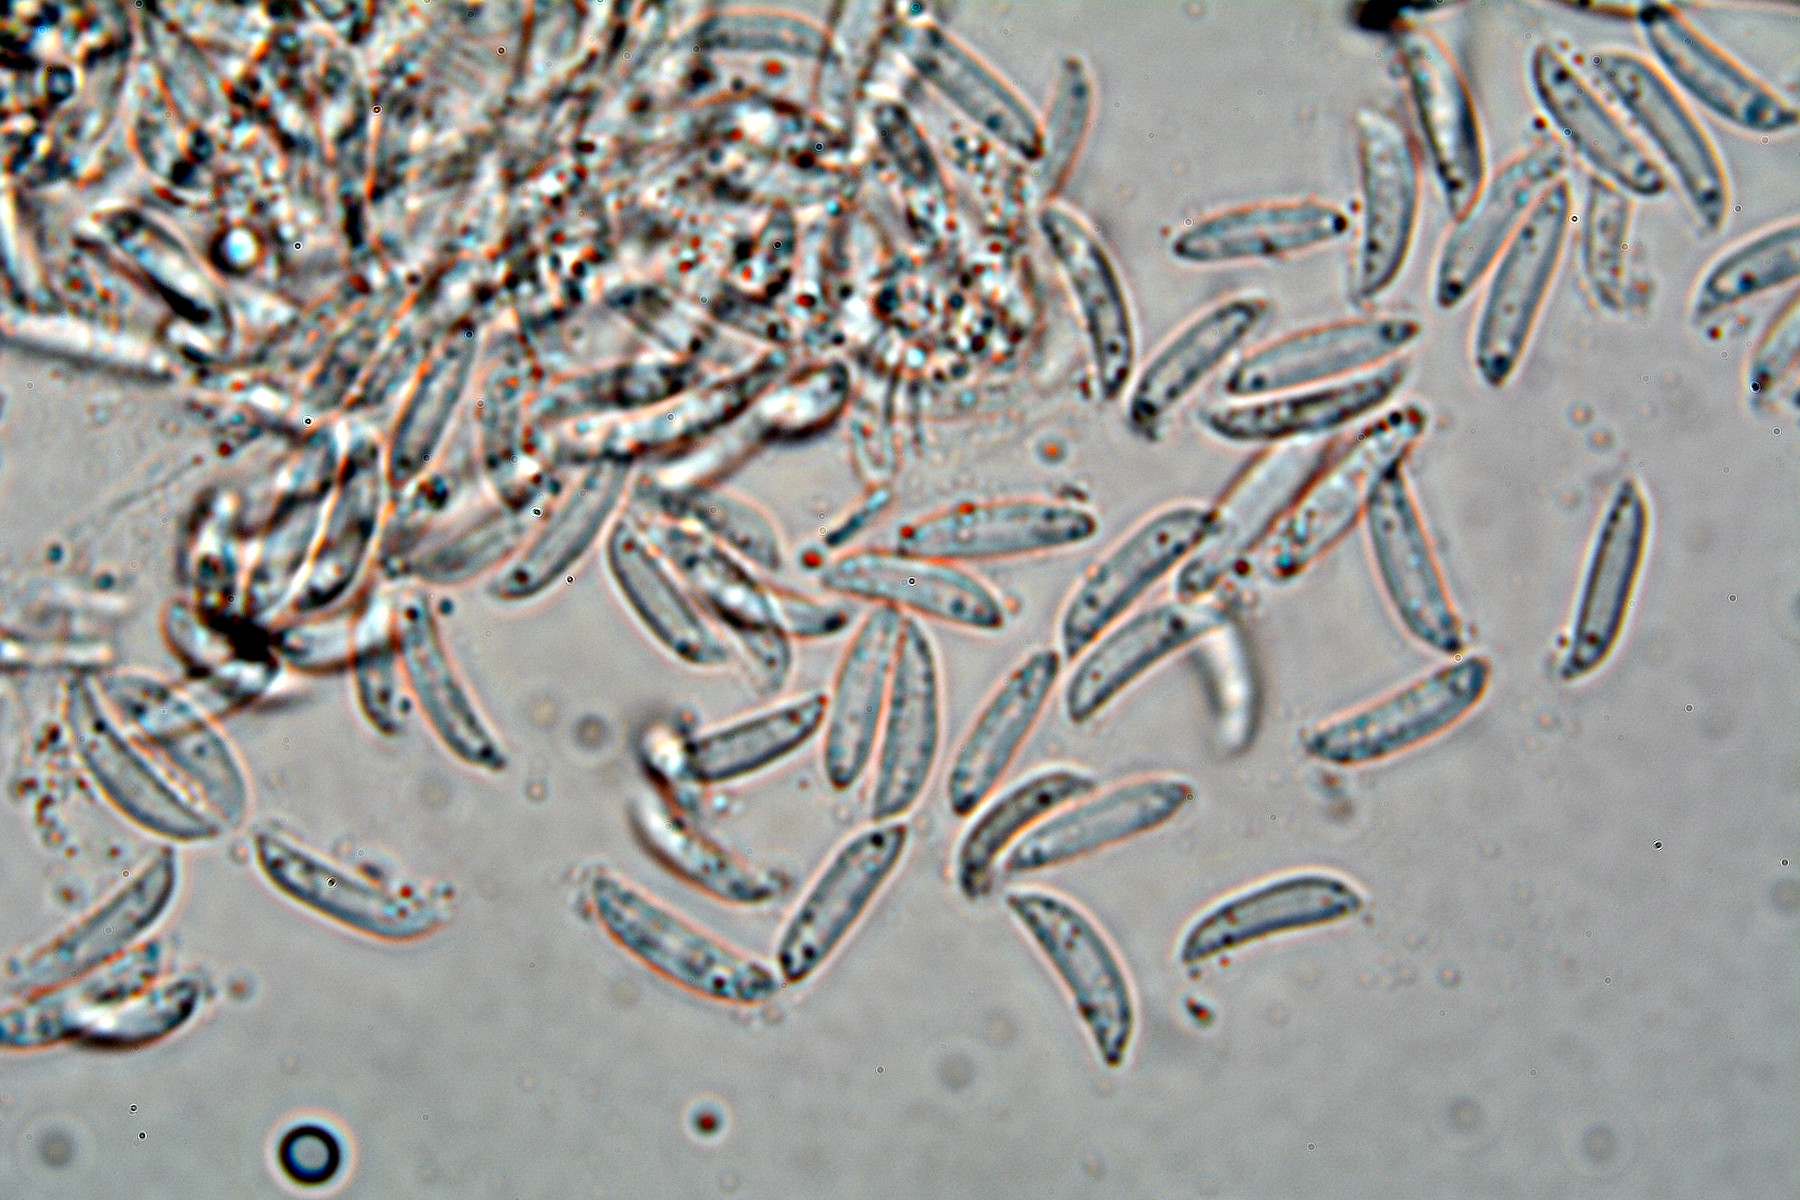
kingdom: Fungi
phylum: Ascomycota
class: Dothideomycetes
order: Pleosporales
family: Didymellaceae
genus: Didymella
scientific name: Didymella epilobii
